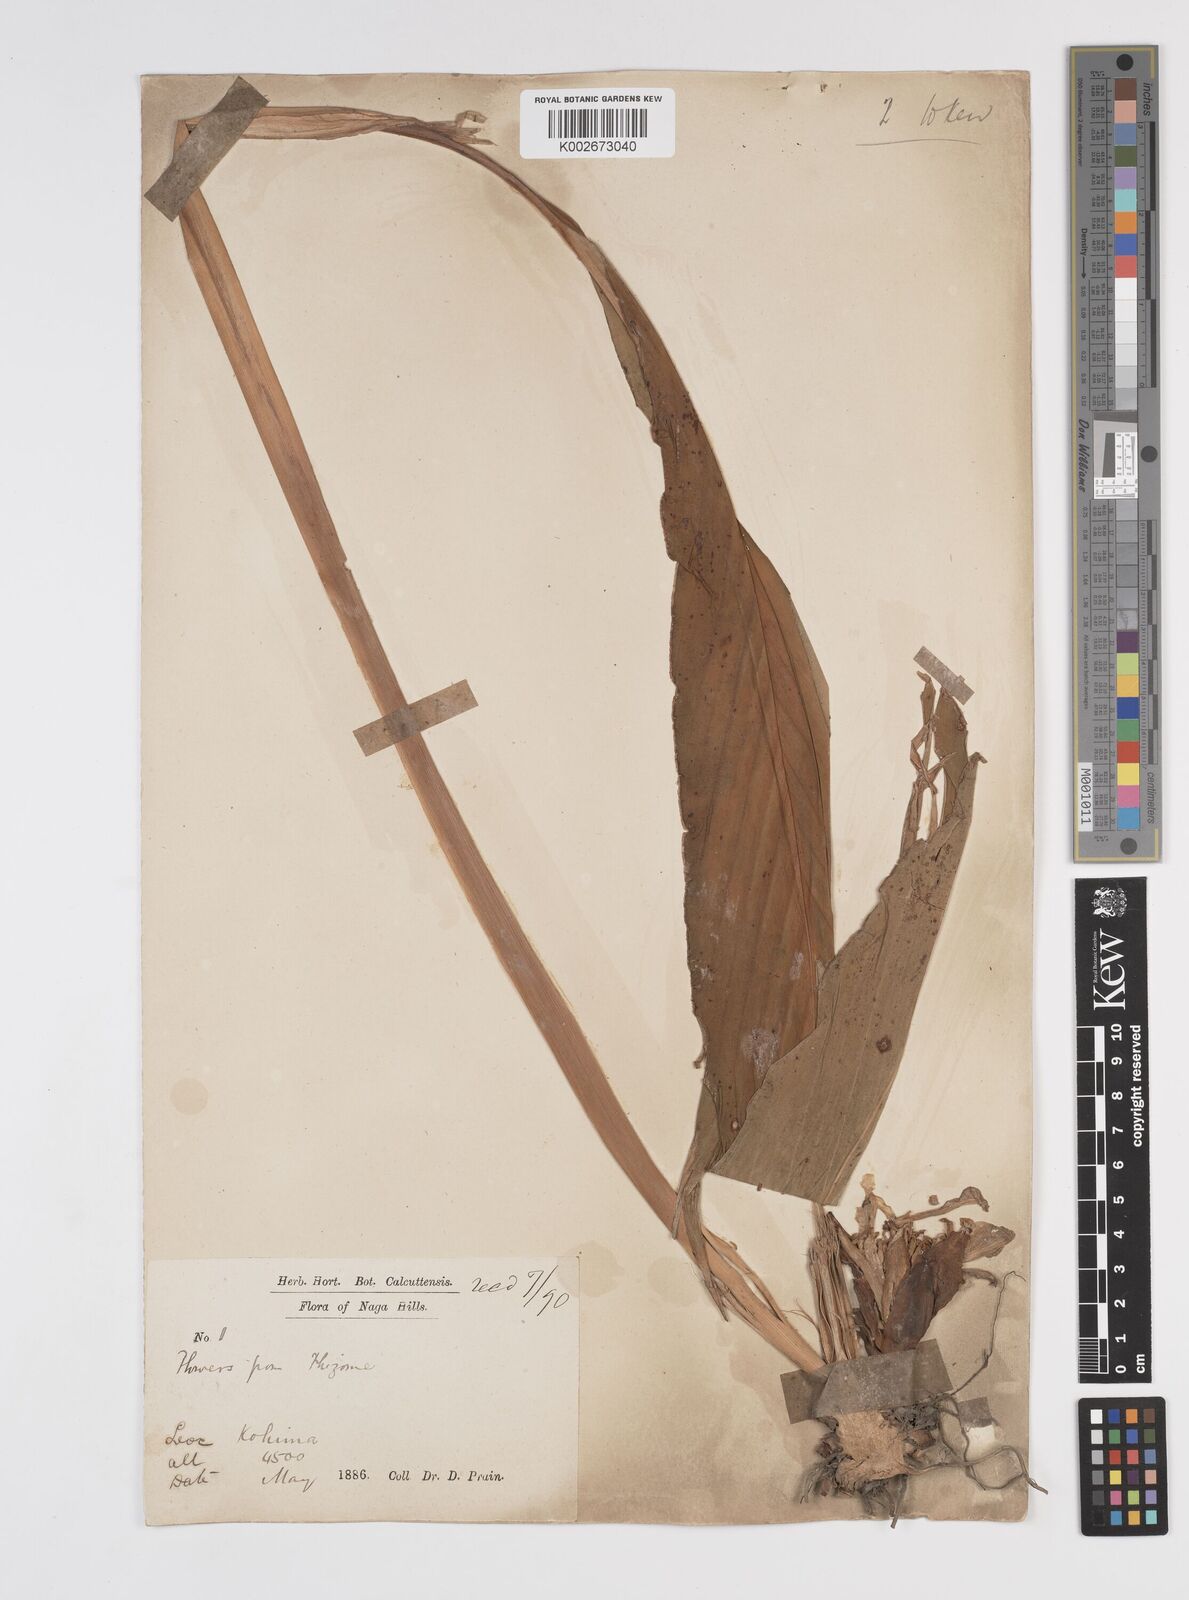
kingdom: Plantae
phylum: Tracheophyta
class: Liliopsida
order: Zingiberales
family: Zingiberaceae
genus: Amomum
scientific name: Amomum dealbatum
